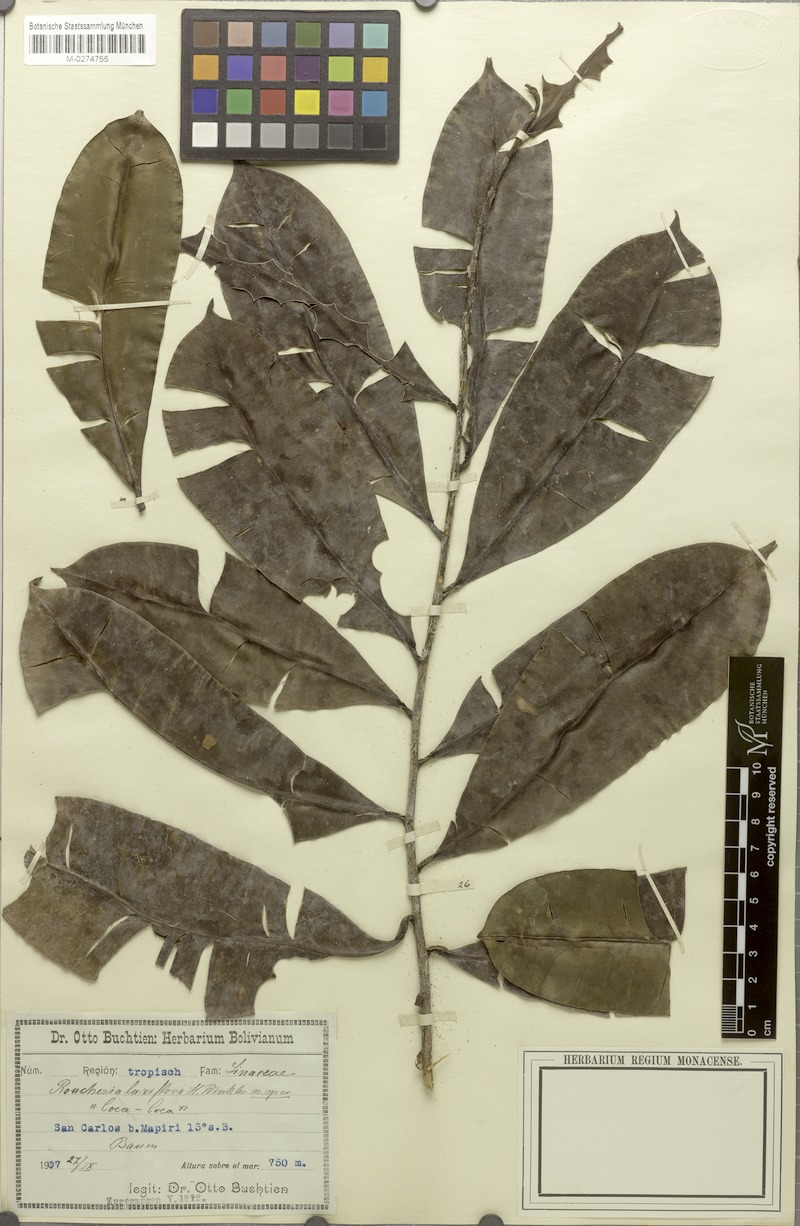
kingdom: Plantae
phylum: Tracheophyta
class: Magnoliopsida
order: Malpighiales
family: Linaceae
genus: Roucheria
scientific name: Roucheria laxiflora
